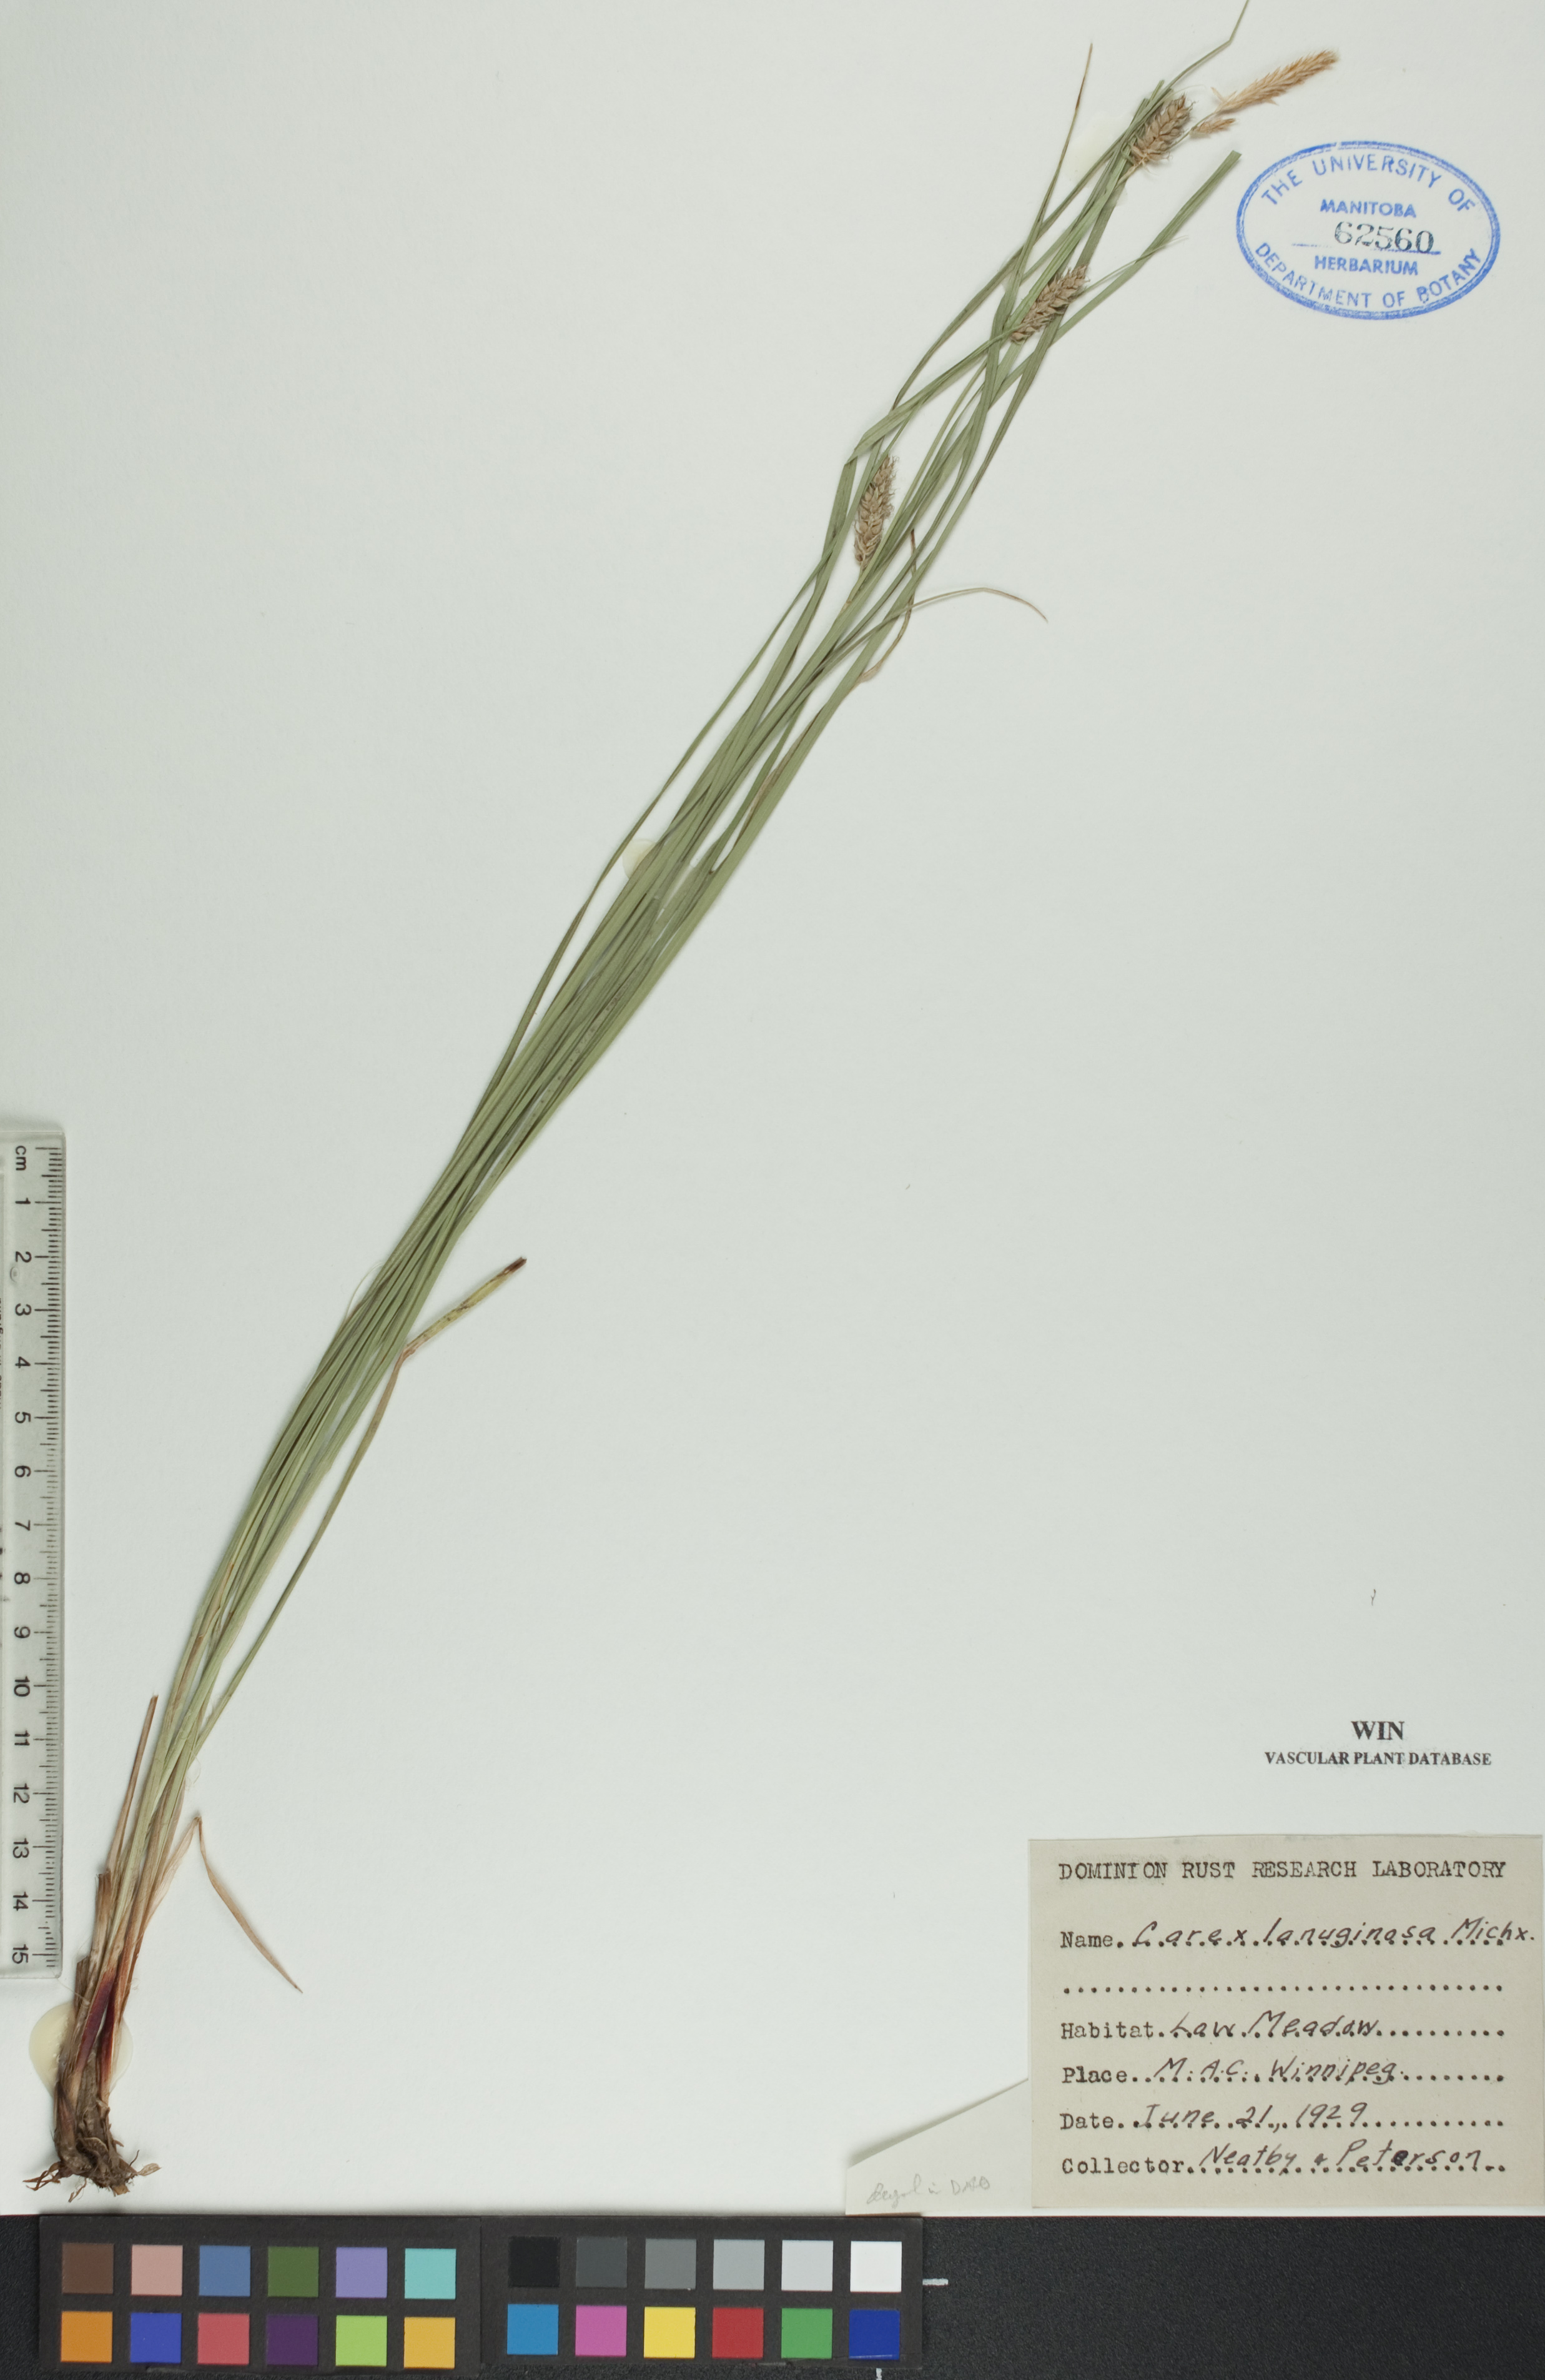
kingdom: Plantae
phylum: Tracheophyta
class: Liliopsida
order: Poales
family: Cyperaceae
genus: Carex
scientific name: Carex lasiocarpa
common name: Slender sedge
